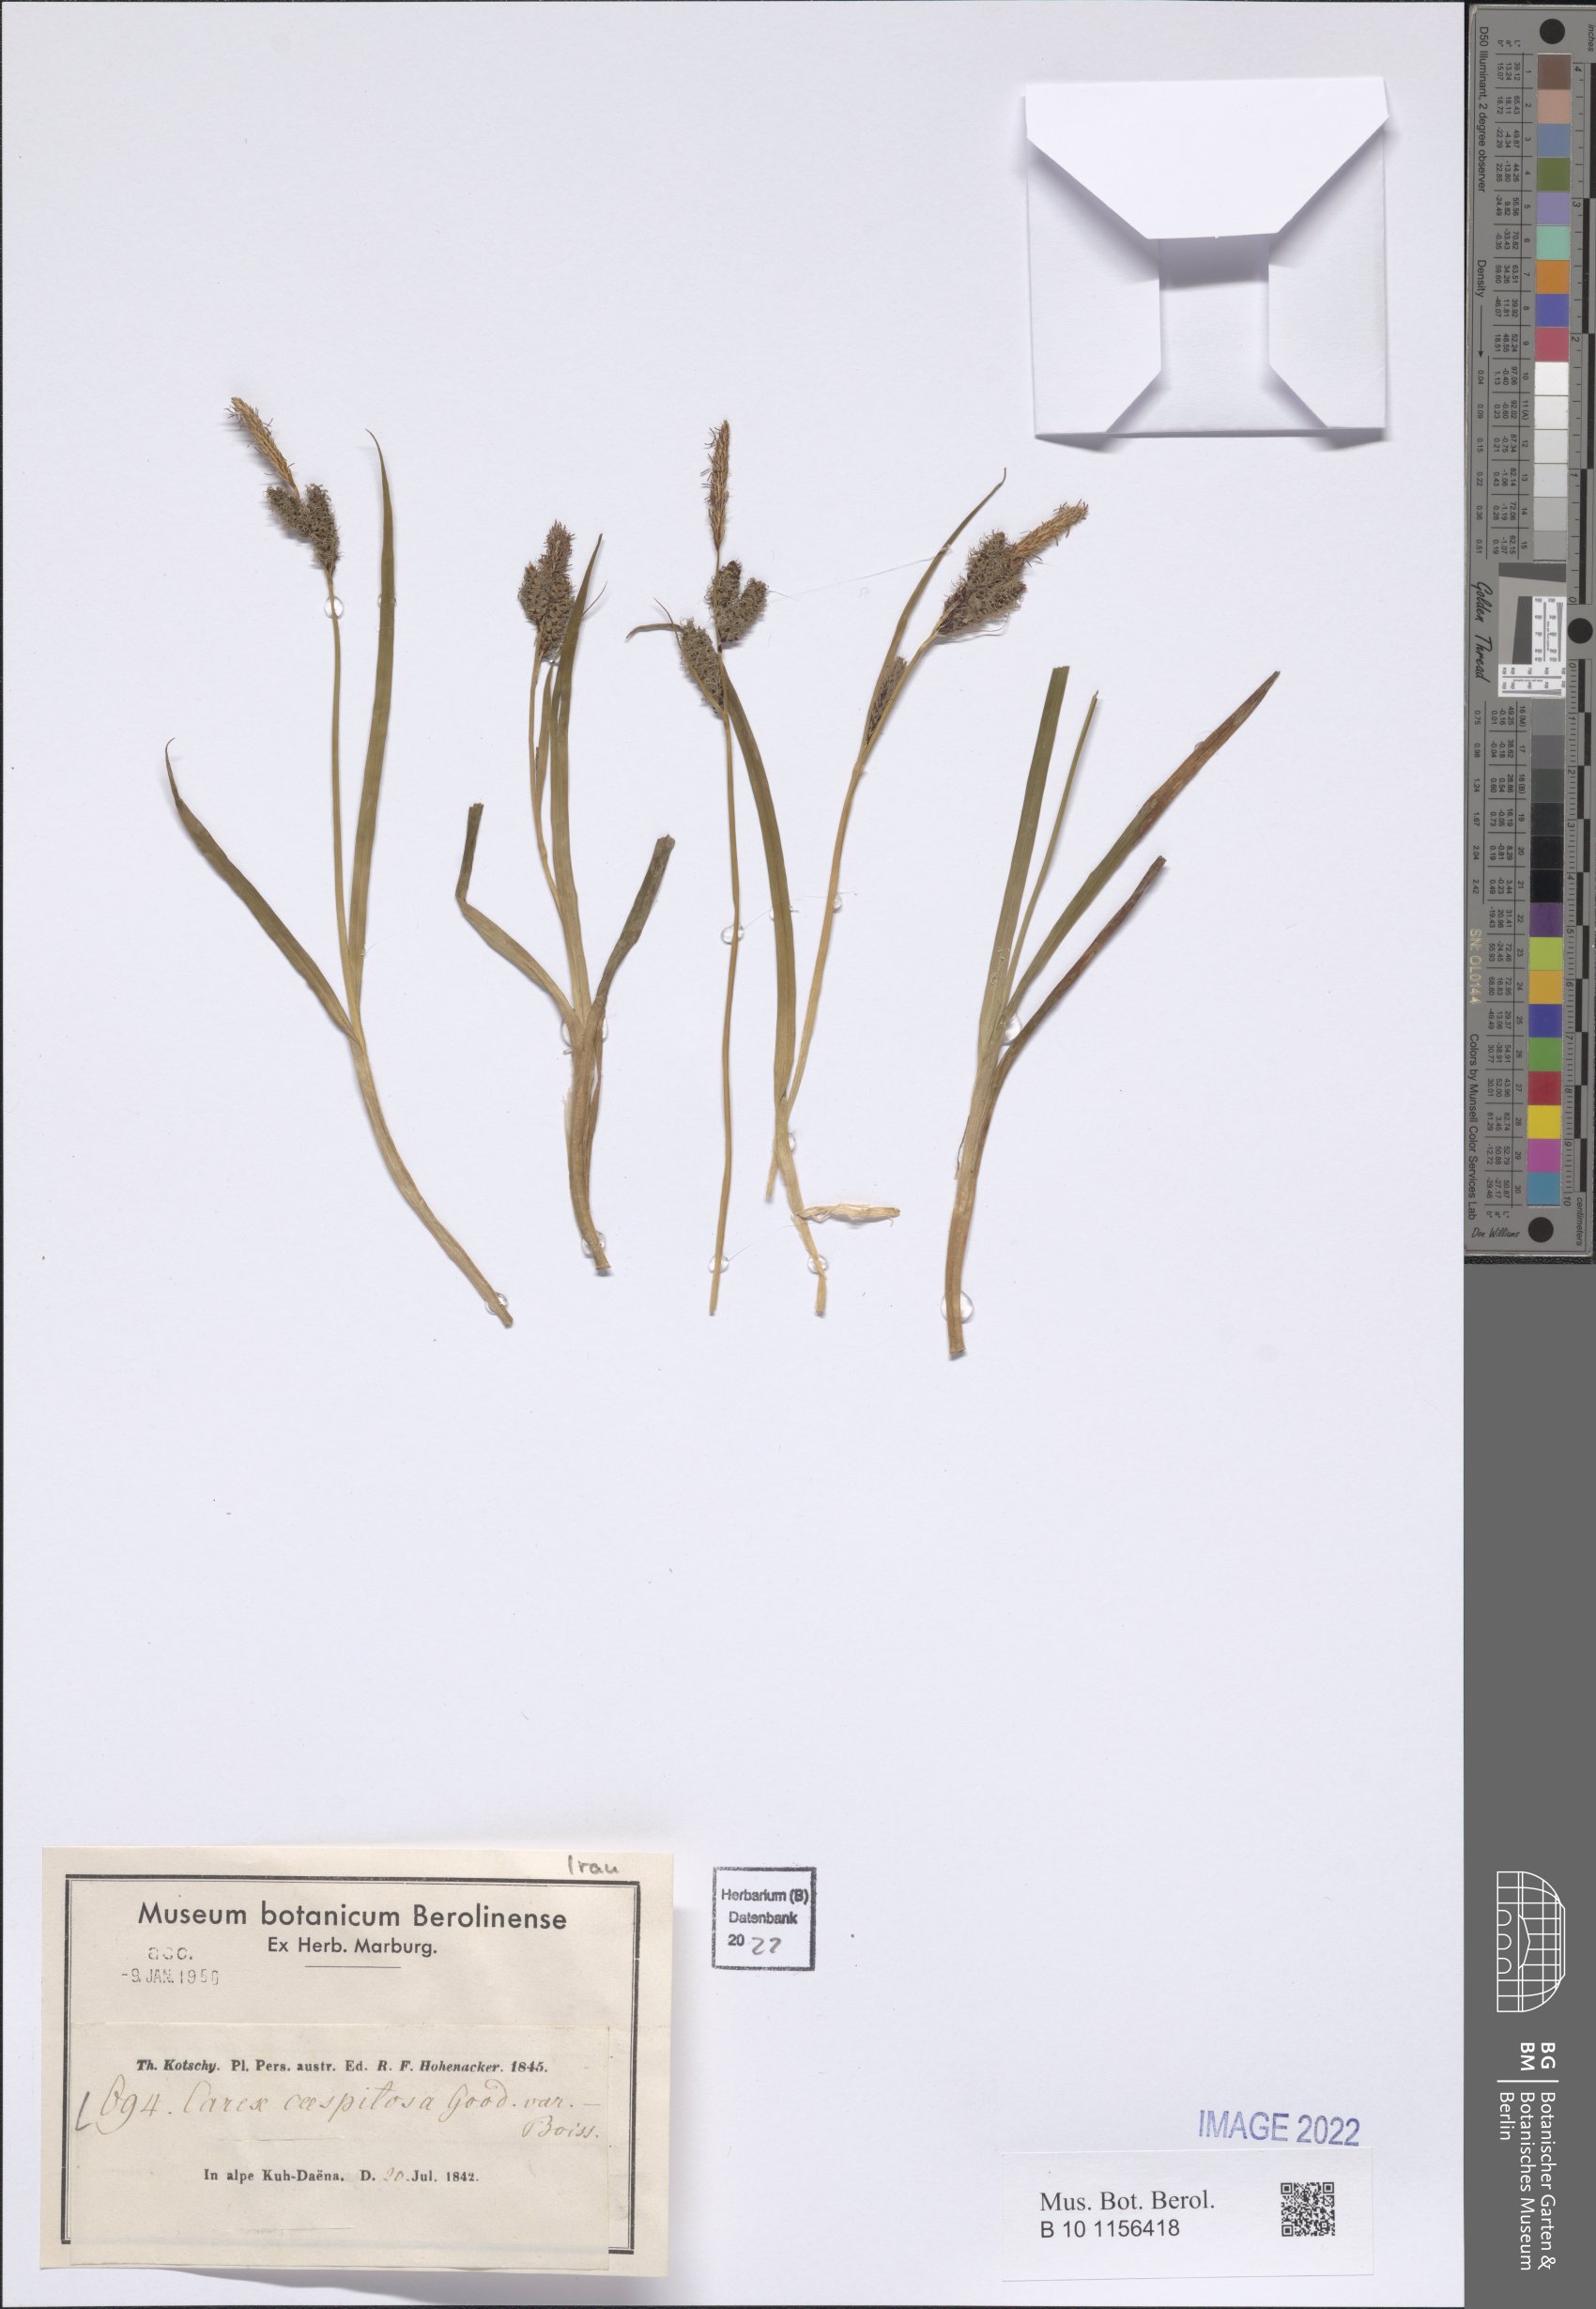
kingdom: Plantae
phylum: Tracheophyta
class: Liliopsida
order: Poales
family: Cyperaceae
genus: Carex
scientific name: Carex cespitosa
